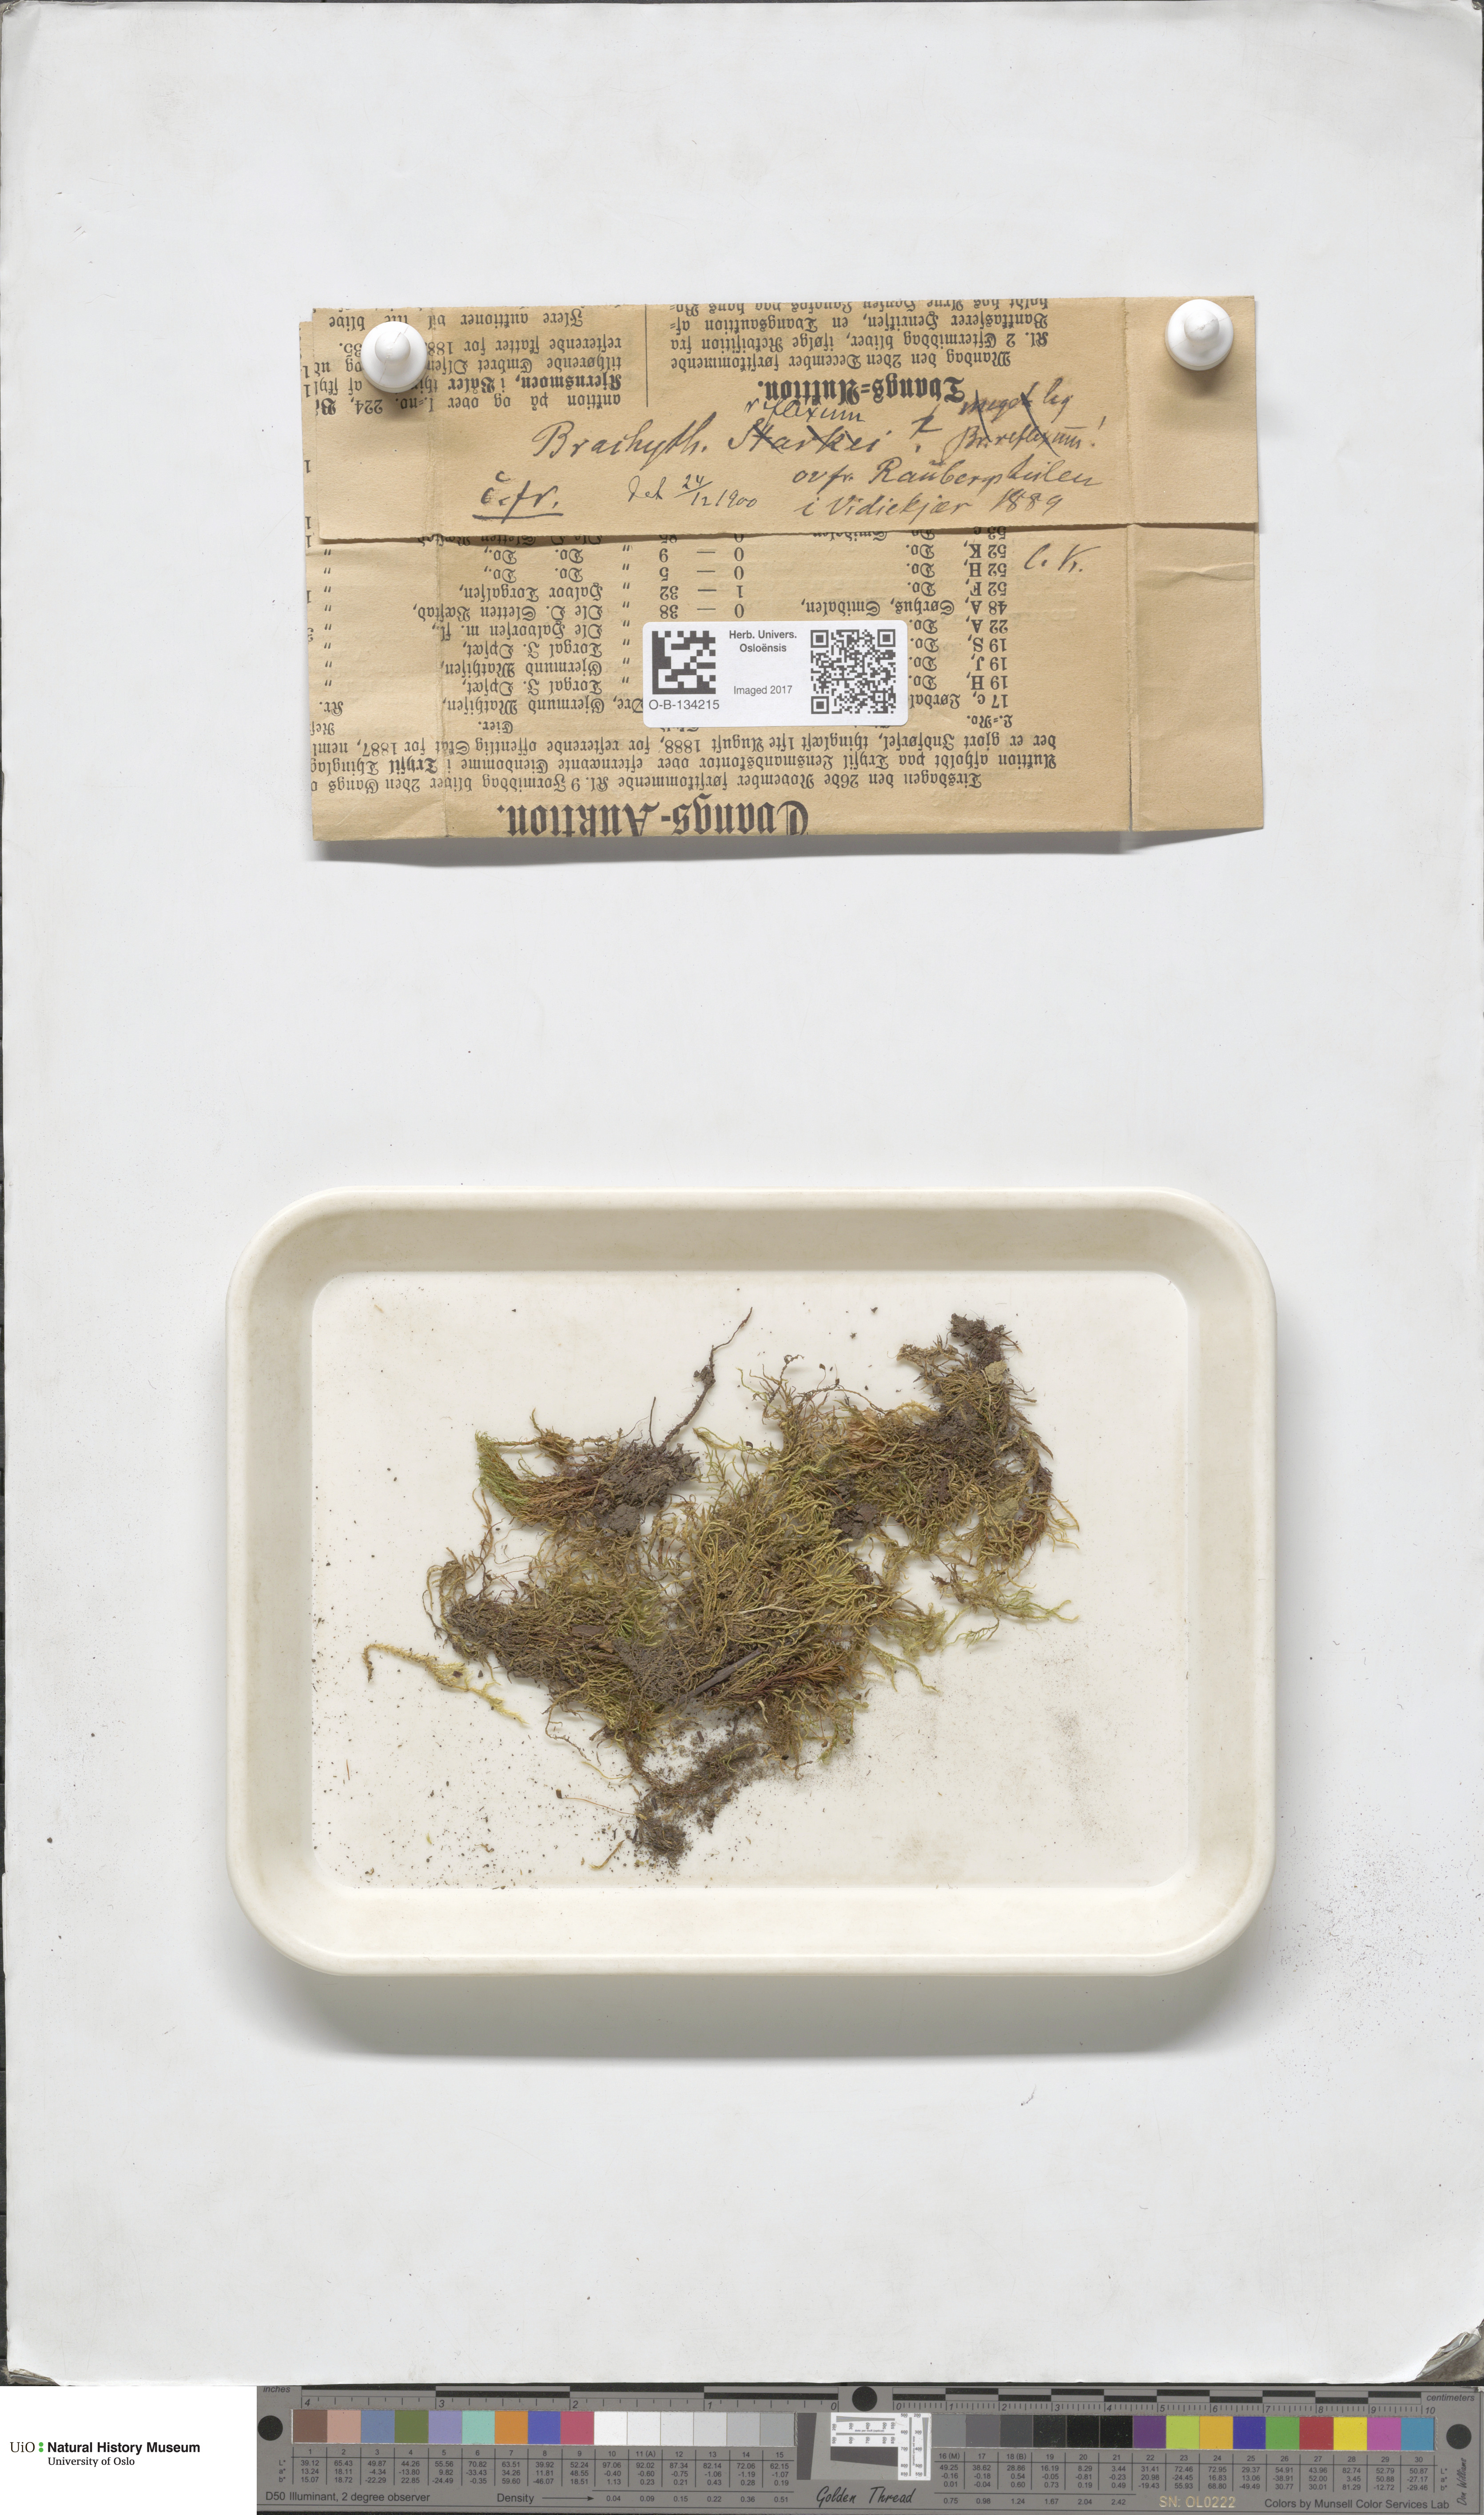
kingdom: Plantae
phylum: Bryophyta
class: Bryopsida
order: Hypnales
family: Brachytheciaceae
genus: Sciuro-hypnum
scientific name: Sciuro-hypnum reflexum
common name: Reflexed feather-moss
